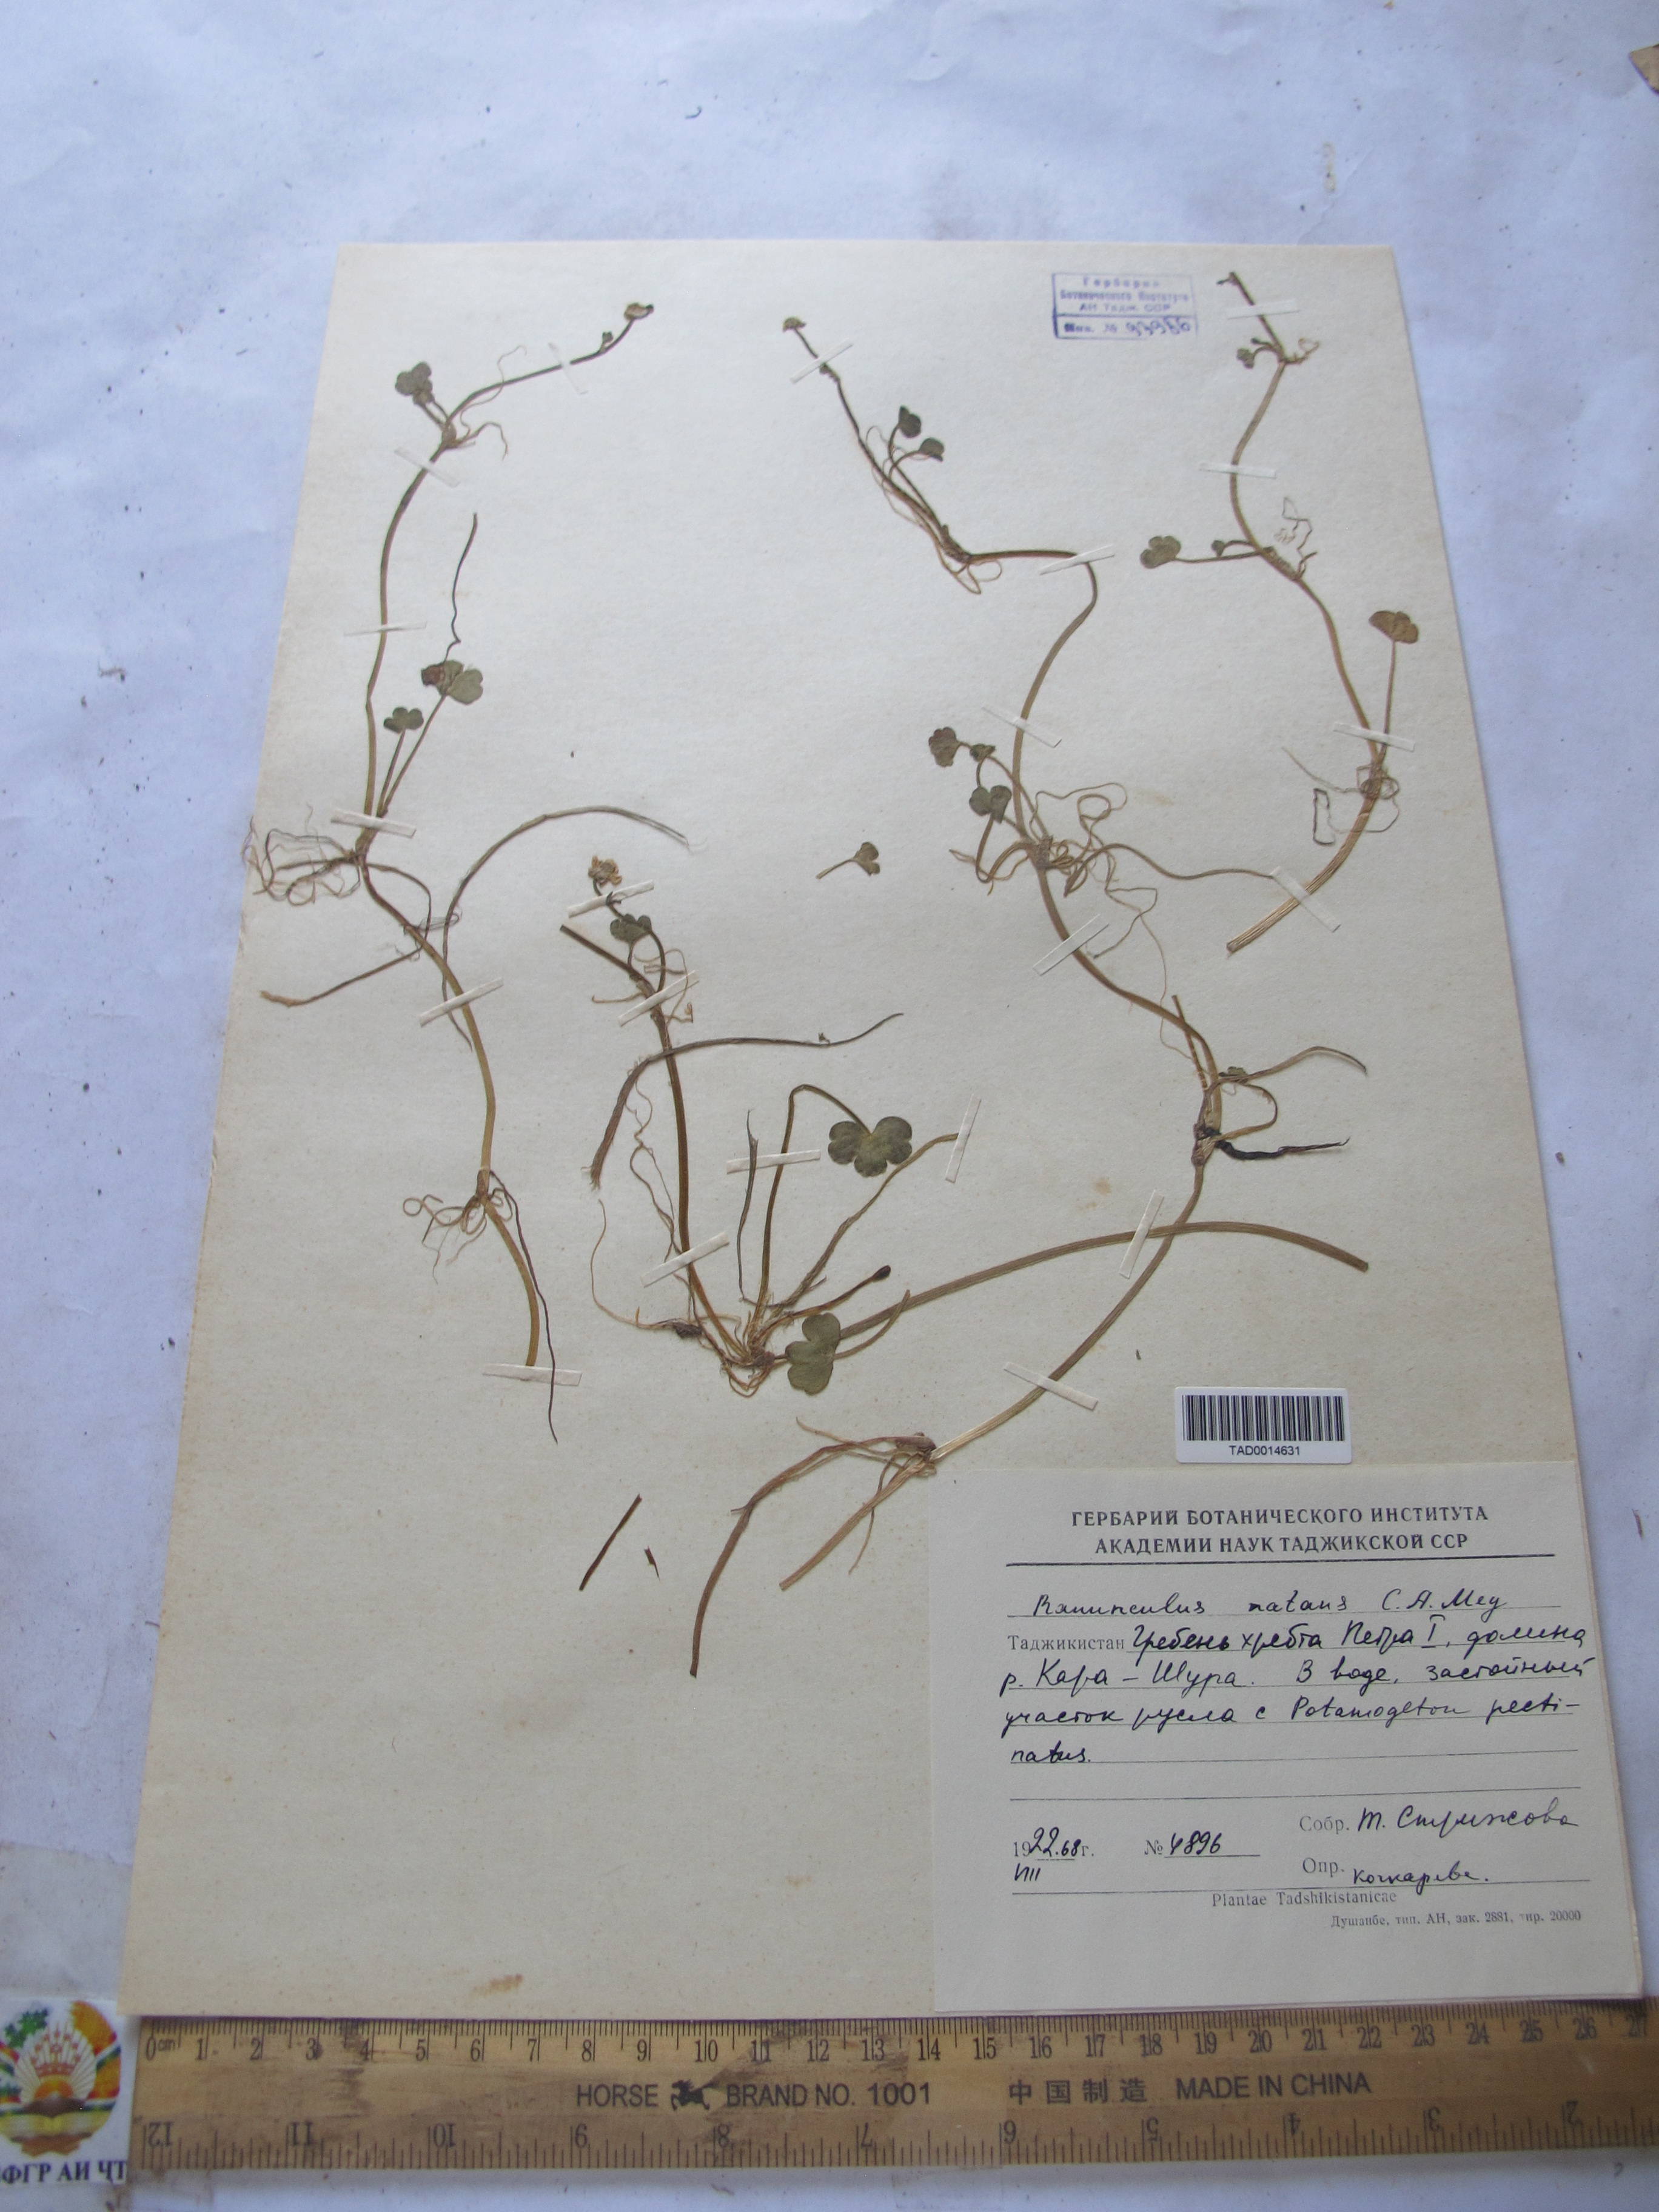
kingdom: Plantae
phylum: Tracheophyta
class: Magnoliopsida
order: Ranunculales
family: Ranunculaceae
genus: Ranunculus
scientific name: Ranunculus natans
